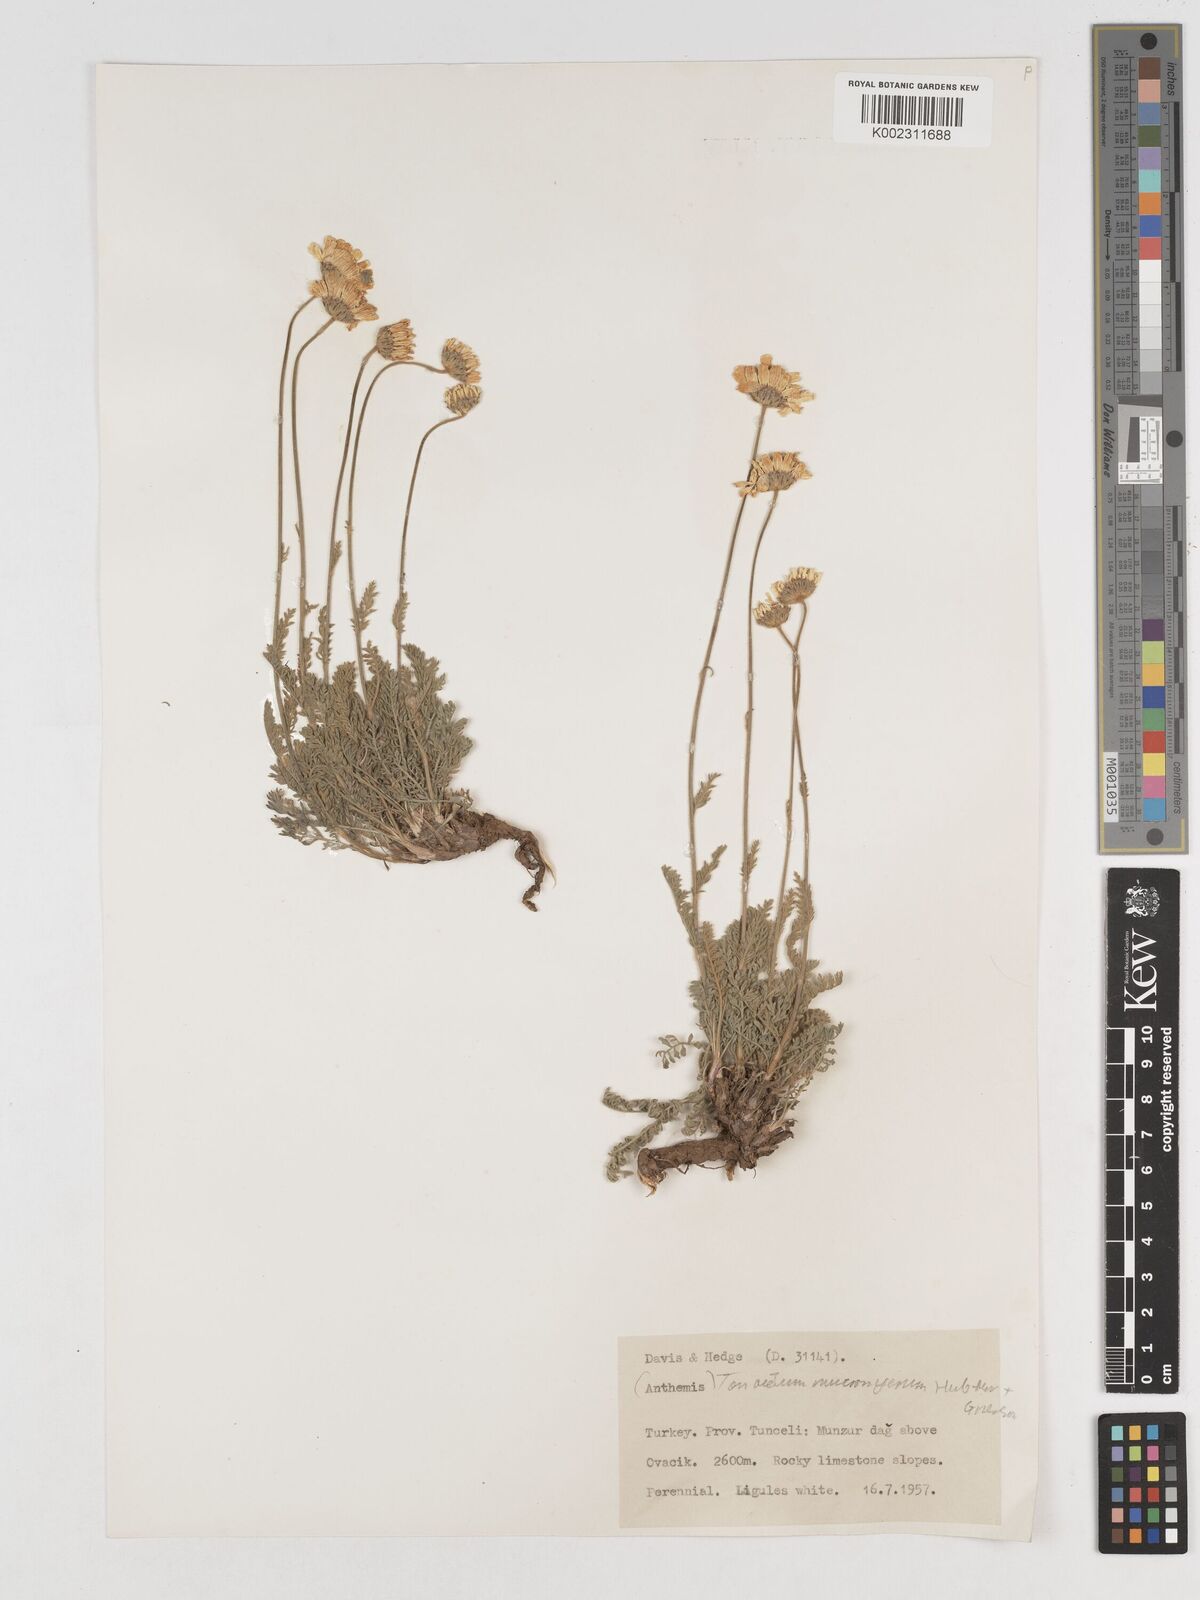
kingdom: Plantae
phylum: Tracheophyta
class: Magnoliopsida
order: Asterales
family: Asteraceae
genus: Tanacetum
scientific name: Tanacetum mucroniferum
